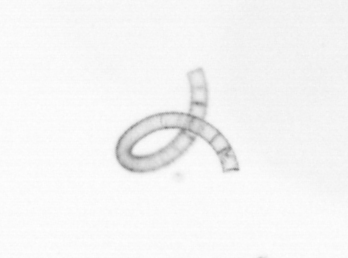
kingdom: Chromista
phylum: Ochrophyta
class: Bacillariophyceae
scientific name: Bacillariophyceae
